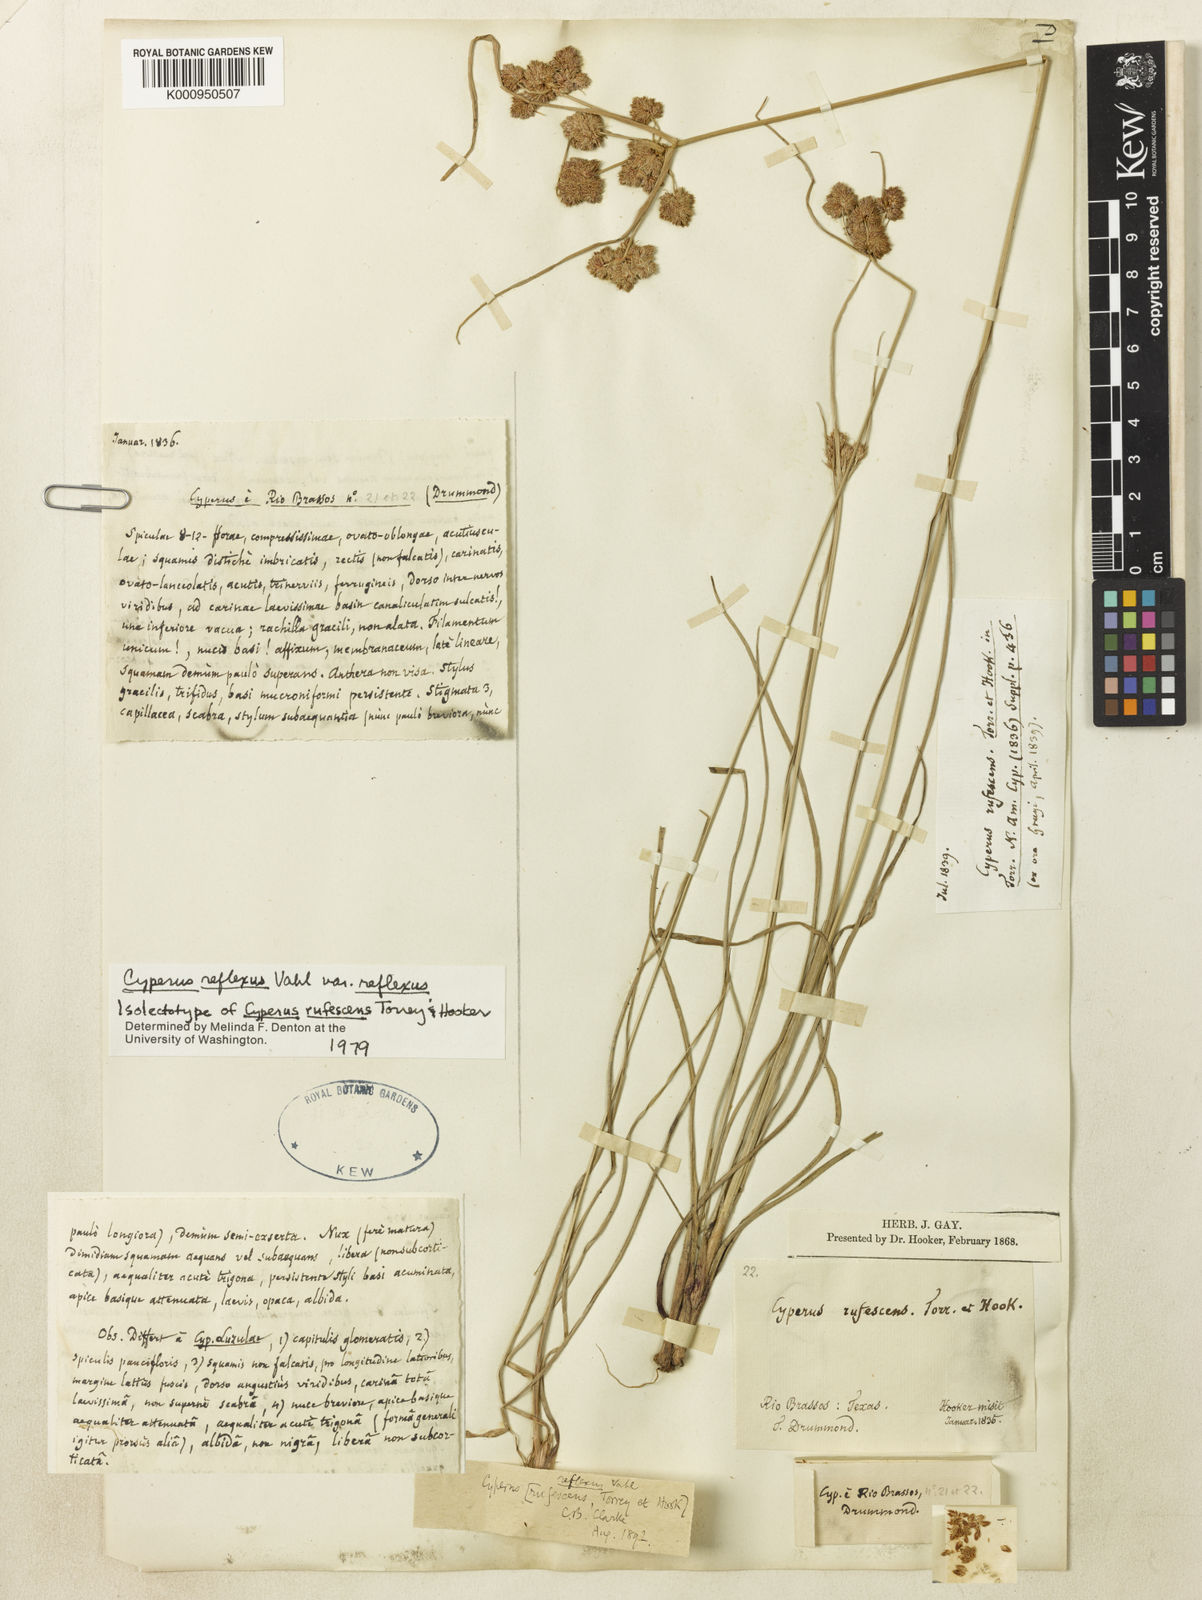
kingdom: Plantae
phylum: Tracheophyta
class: Liliopsida
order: Poales
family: Cyperaceae
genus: Cyperus
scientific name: Cyperus reflexus
